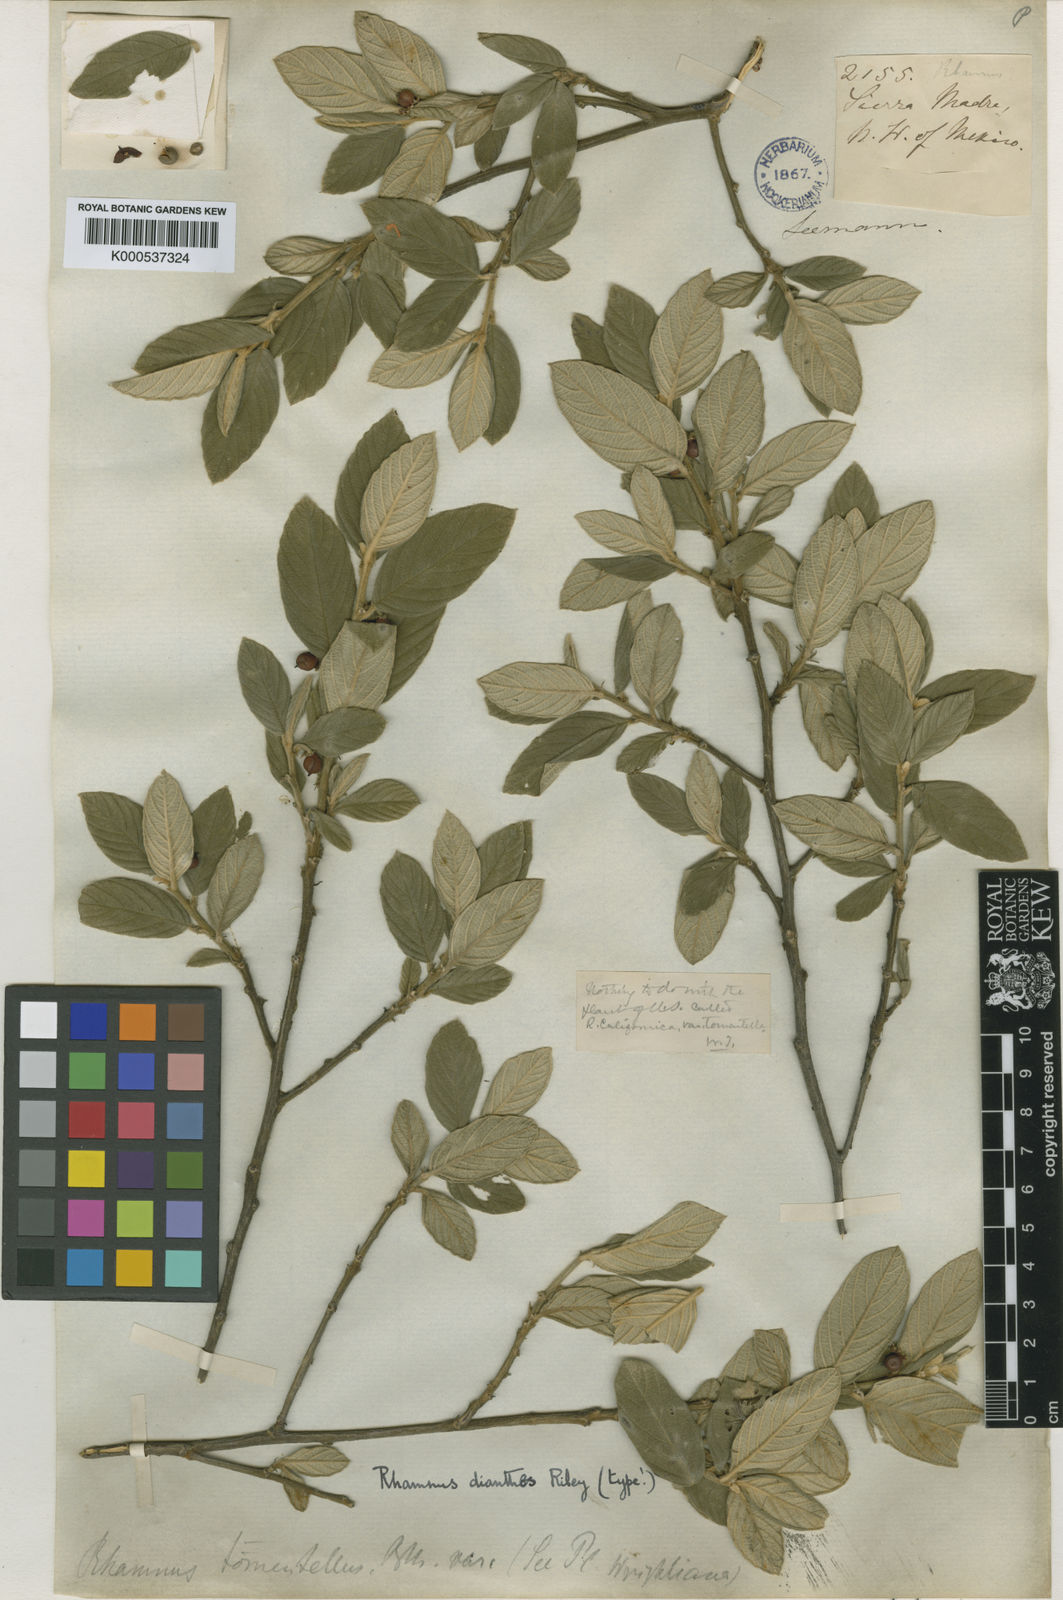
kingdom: Plantae
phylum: Tracheophyta
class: Magnoliopsida
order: Rosales
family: Rhamnaceae
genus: Frangula
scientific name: Frangula dianthes
